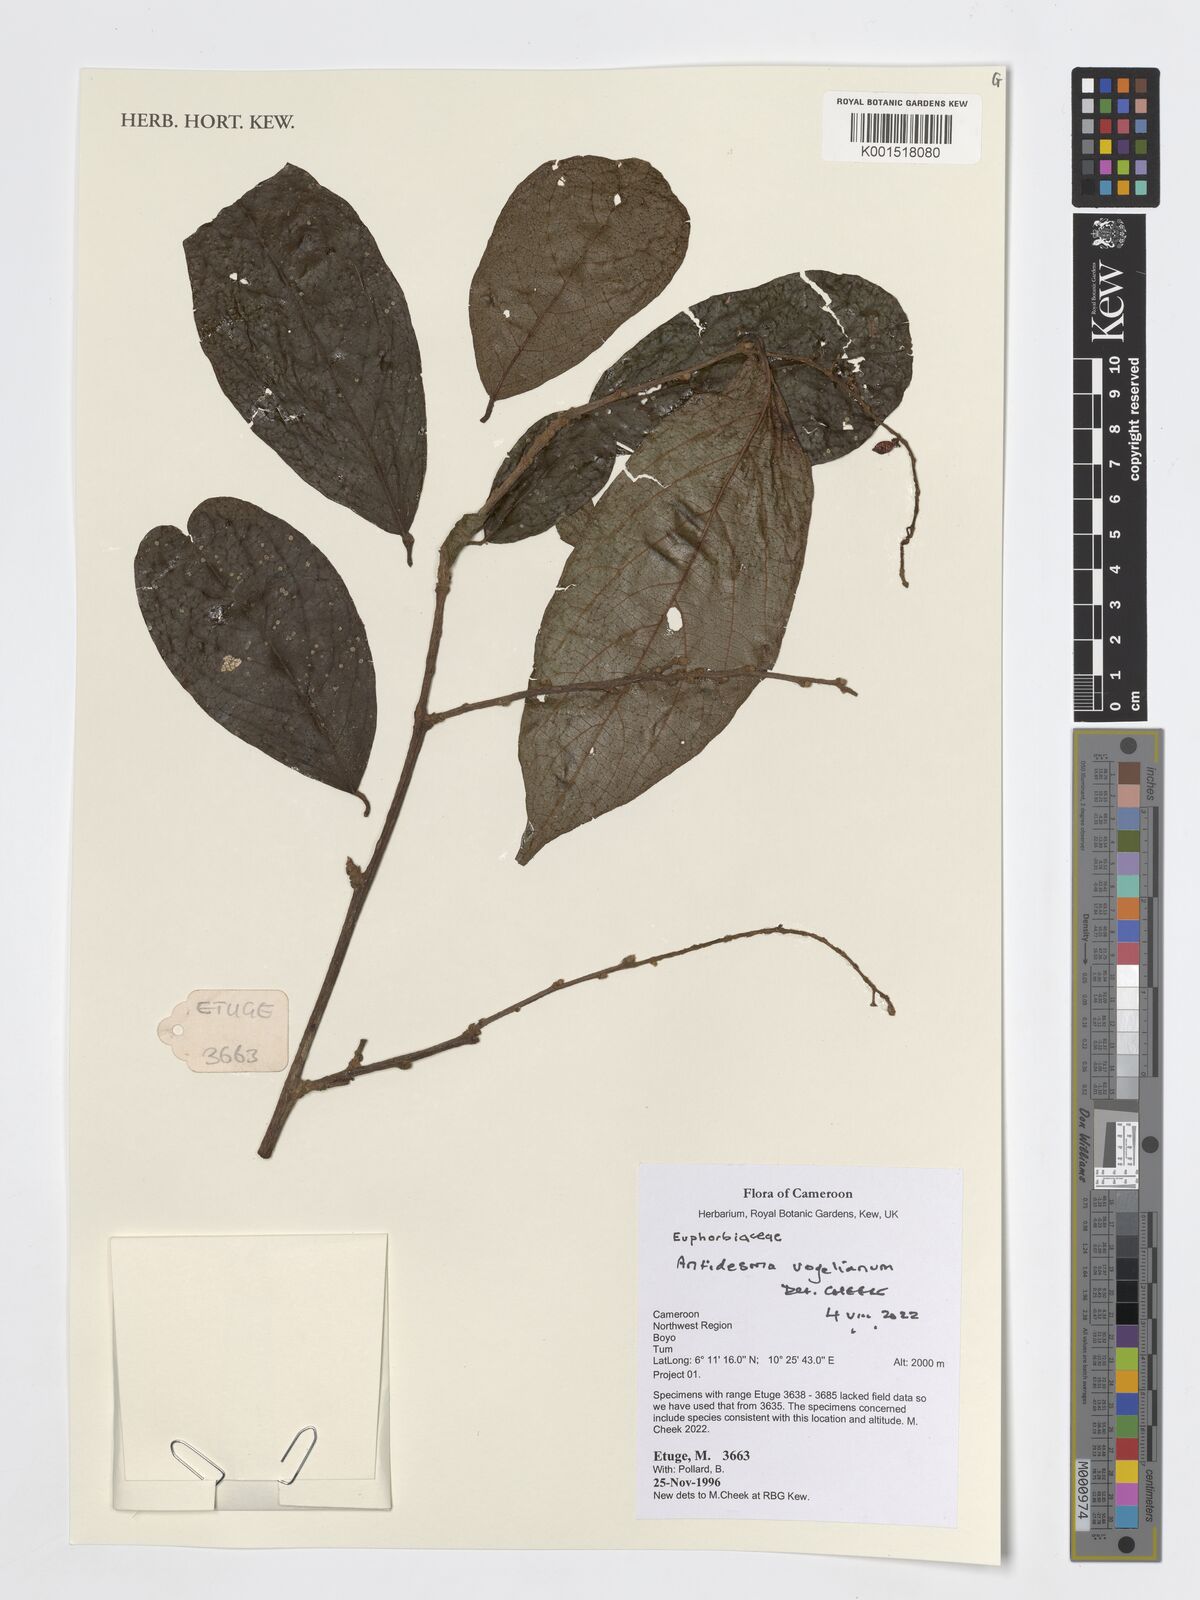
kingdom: Plantae
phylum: Tracheophyta
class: Magnoliopsida
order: Malpighiales
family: Phyllanthaceae
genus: Antidesma
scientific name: Antidesma vogelianum
